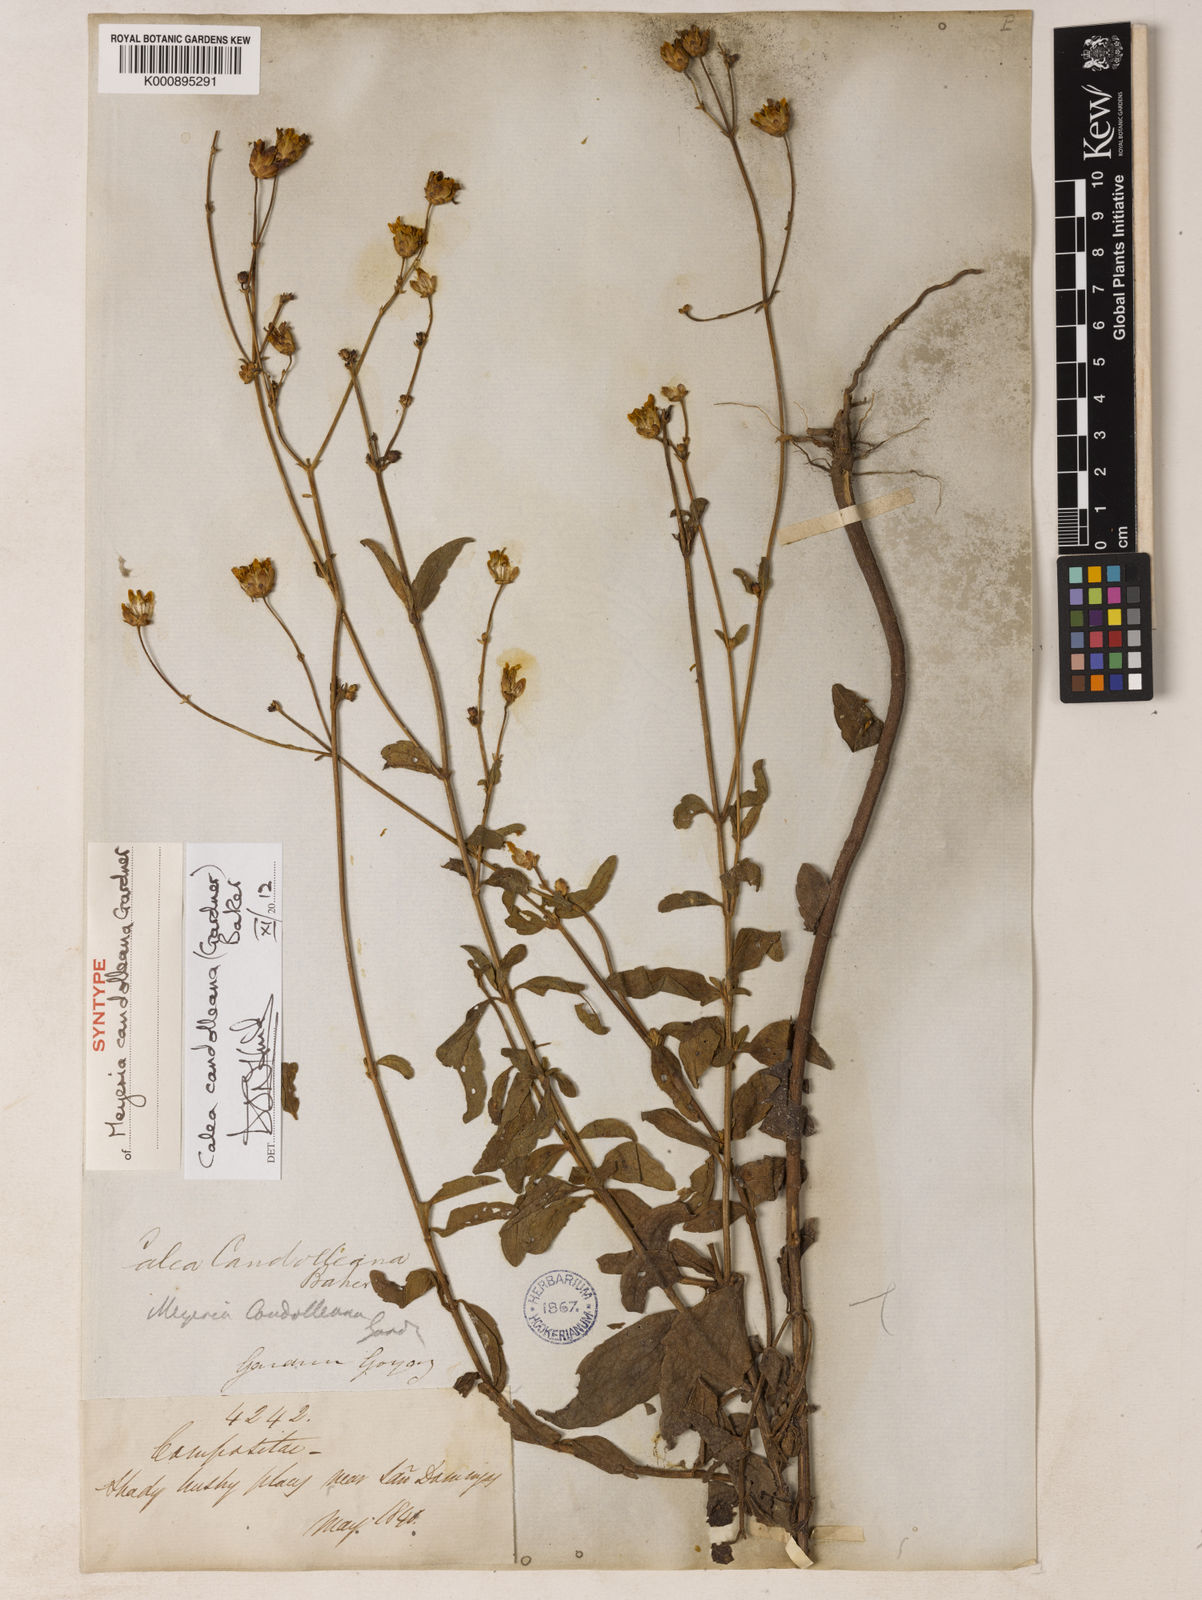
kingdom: Plantae
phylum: Tracheophyta
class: Magnoliopsida
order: Asterales
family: Asteraceae
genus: Calea
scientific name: Calea candolleana
